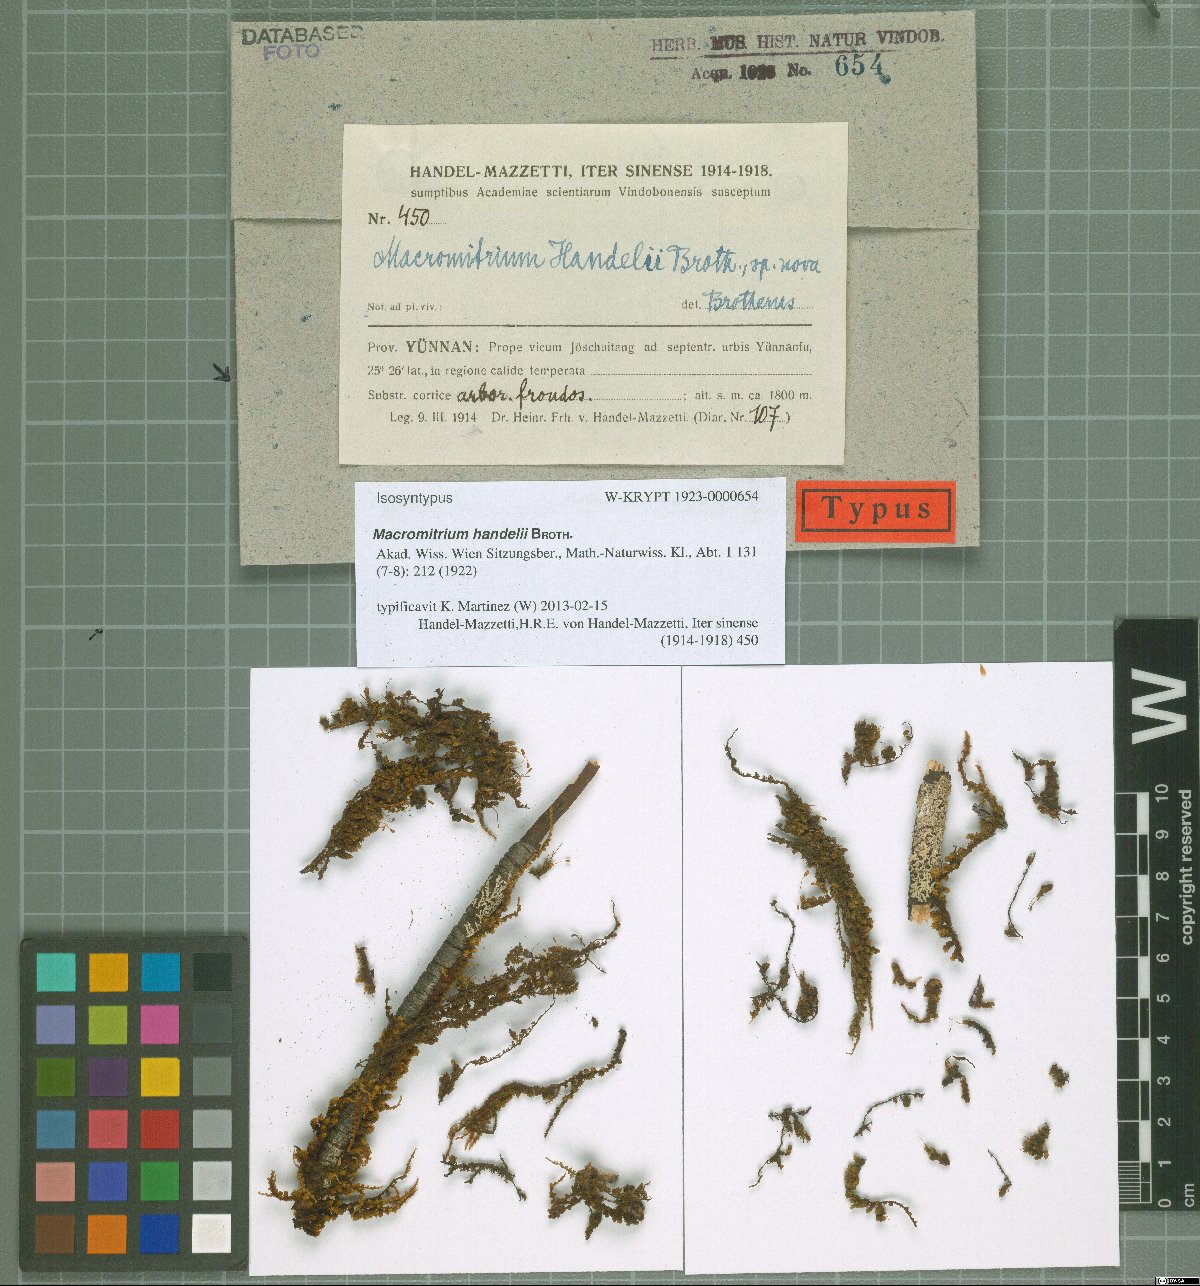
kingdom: Plantae
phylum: Bryophyta
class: Bryopsida
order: Orthotrichales
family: Orthotrichaceae
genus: Macromitrium
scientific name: Macromitrium cavaleriei
